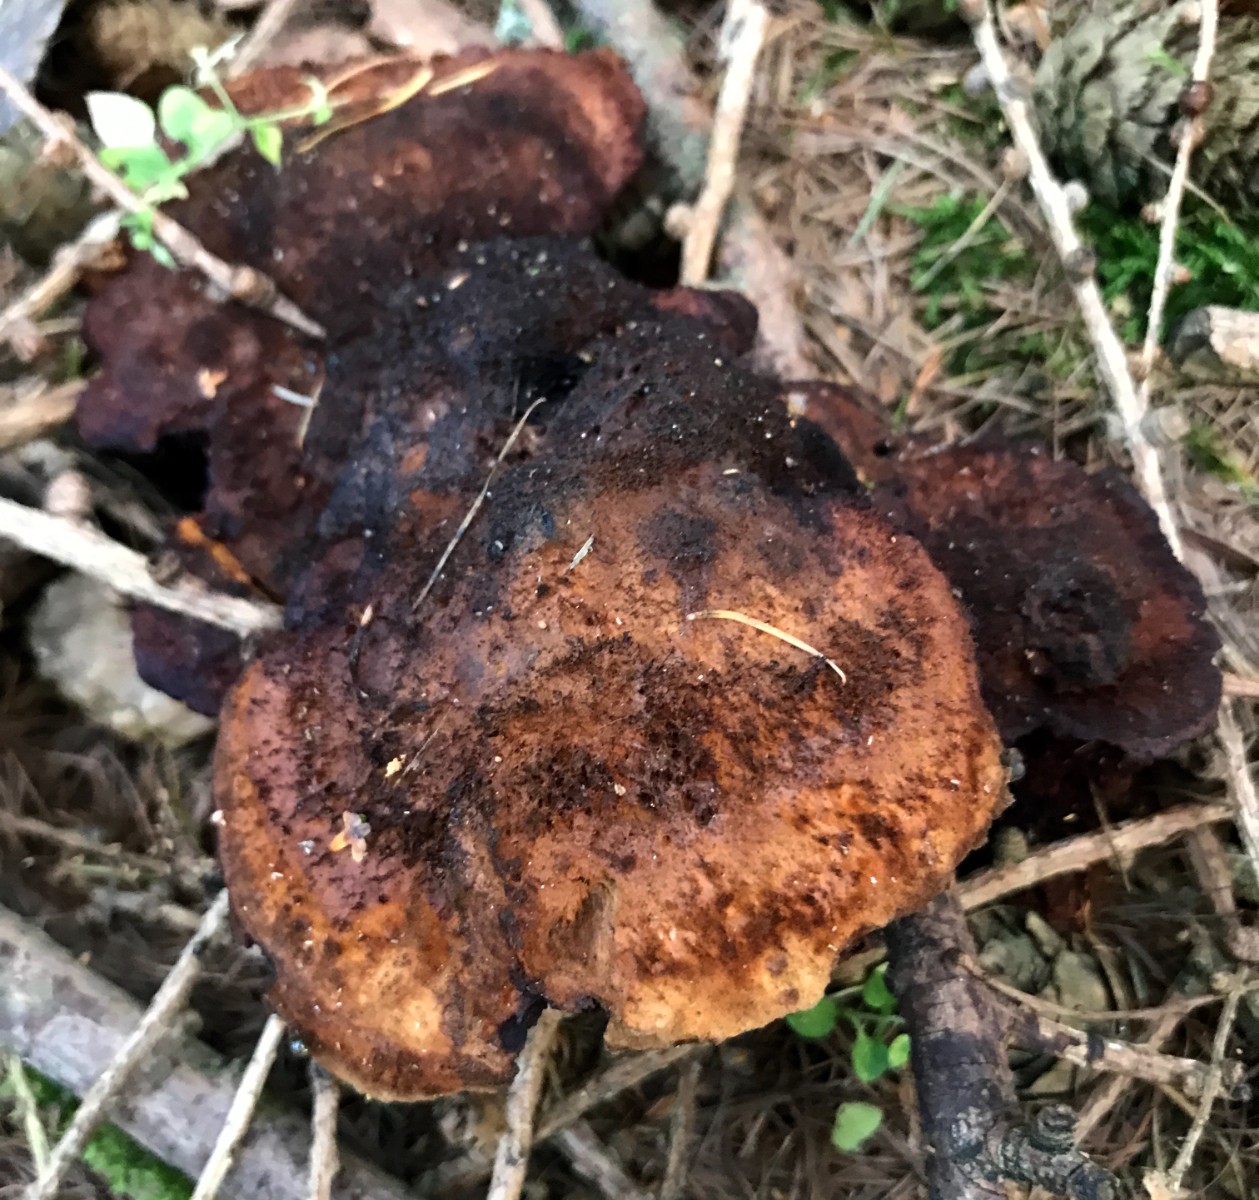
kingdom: Fungi
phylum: Basidiomycota
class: Agaricomycetes
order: Polyporales
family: Laetiporaceae
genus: Phaeolus
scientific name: Phaeolus schweinitzii
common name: brunporesvamp
